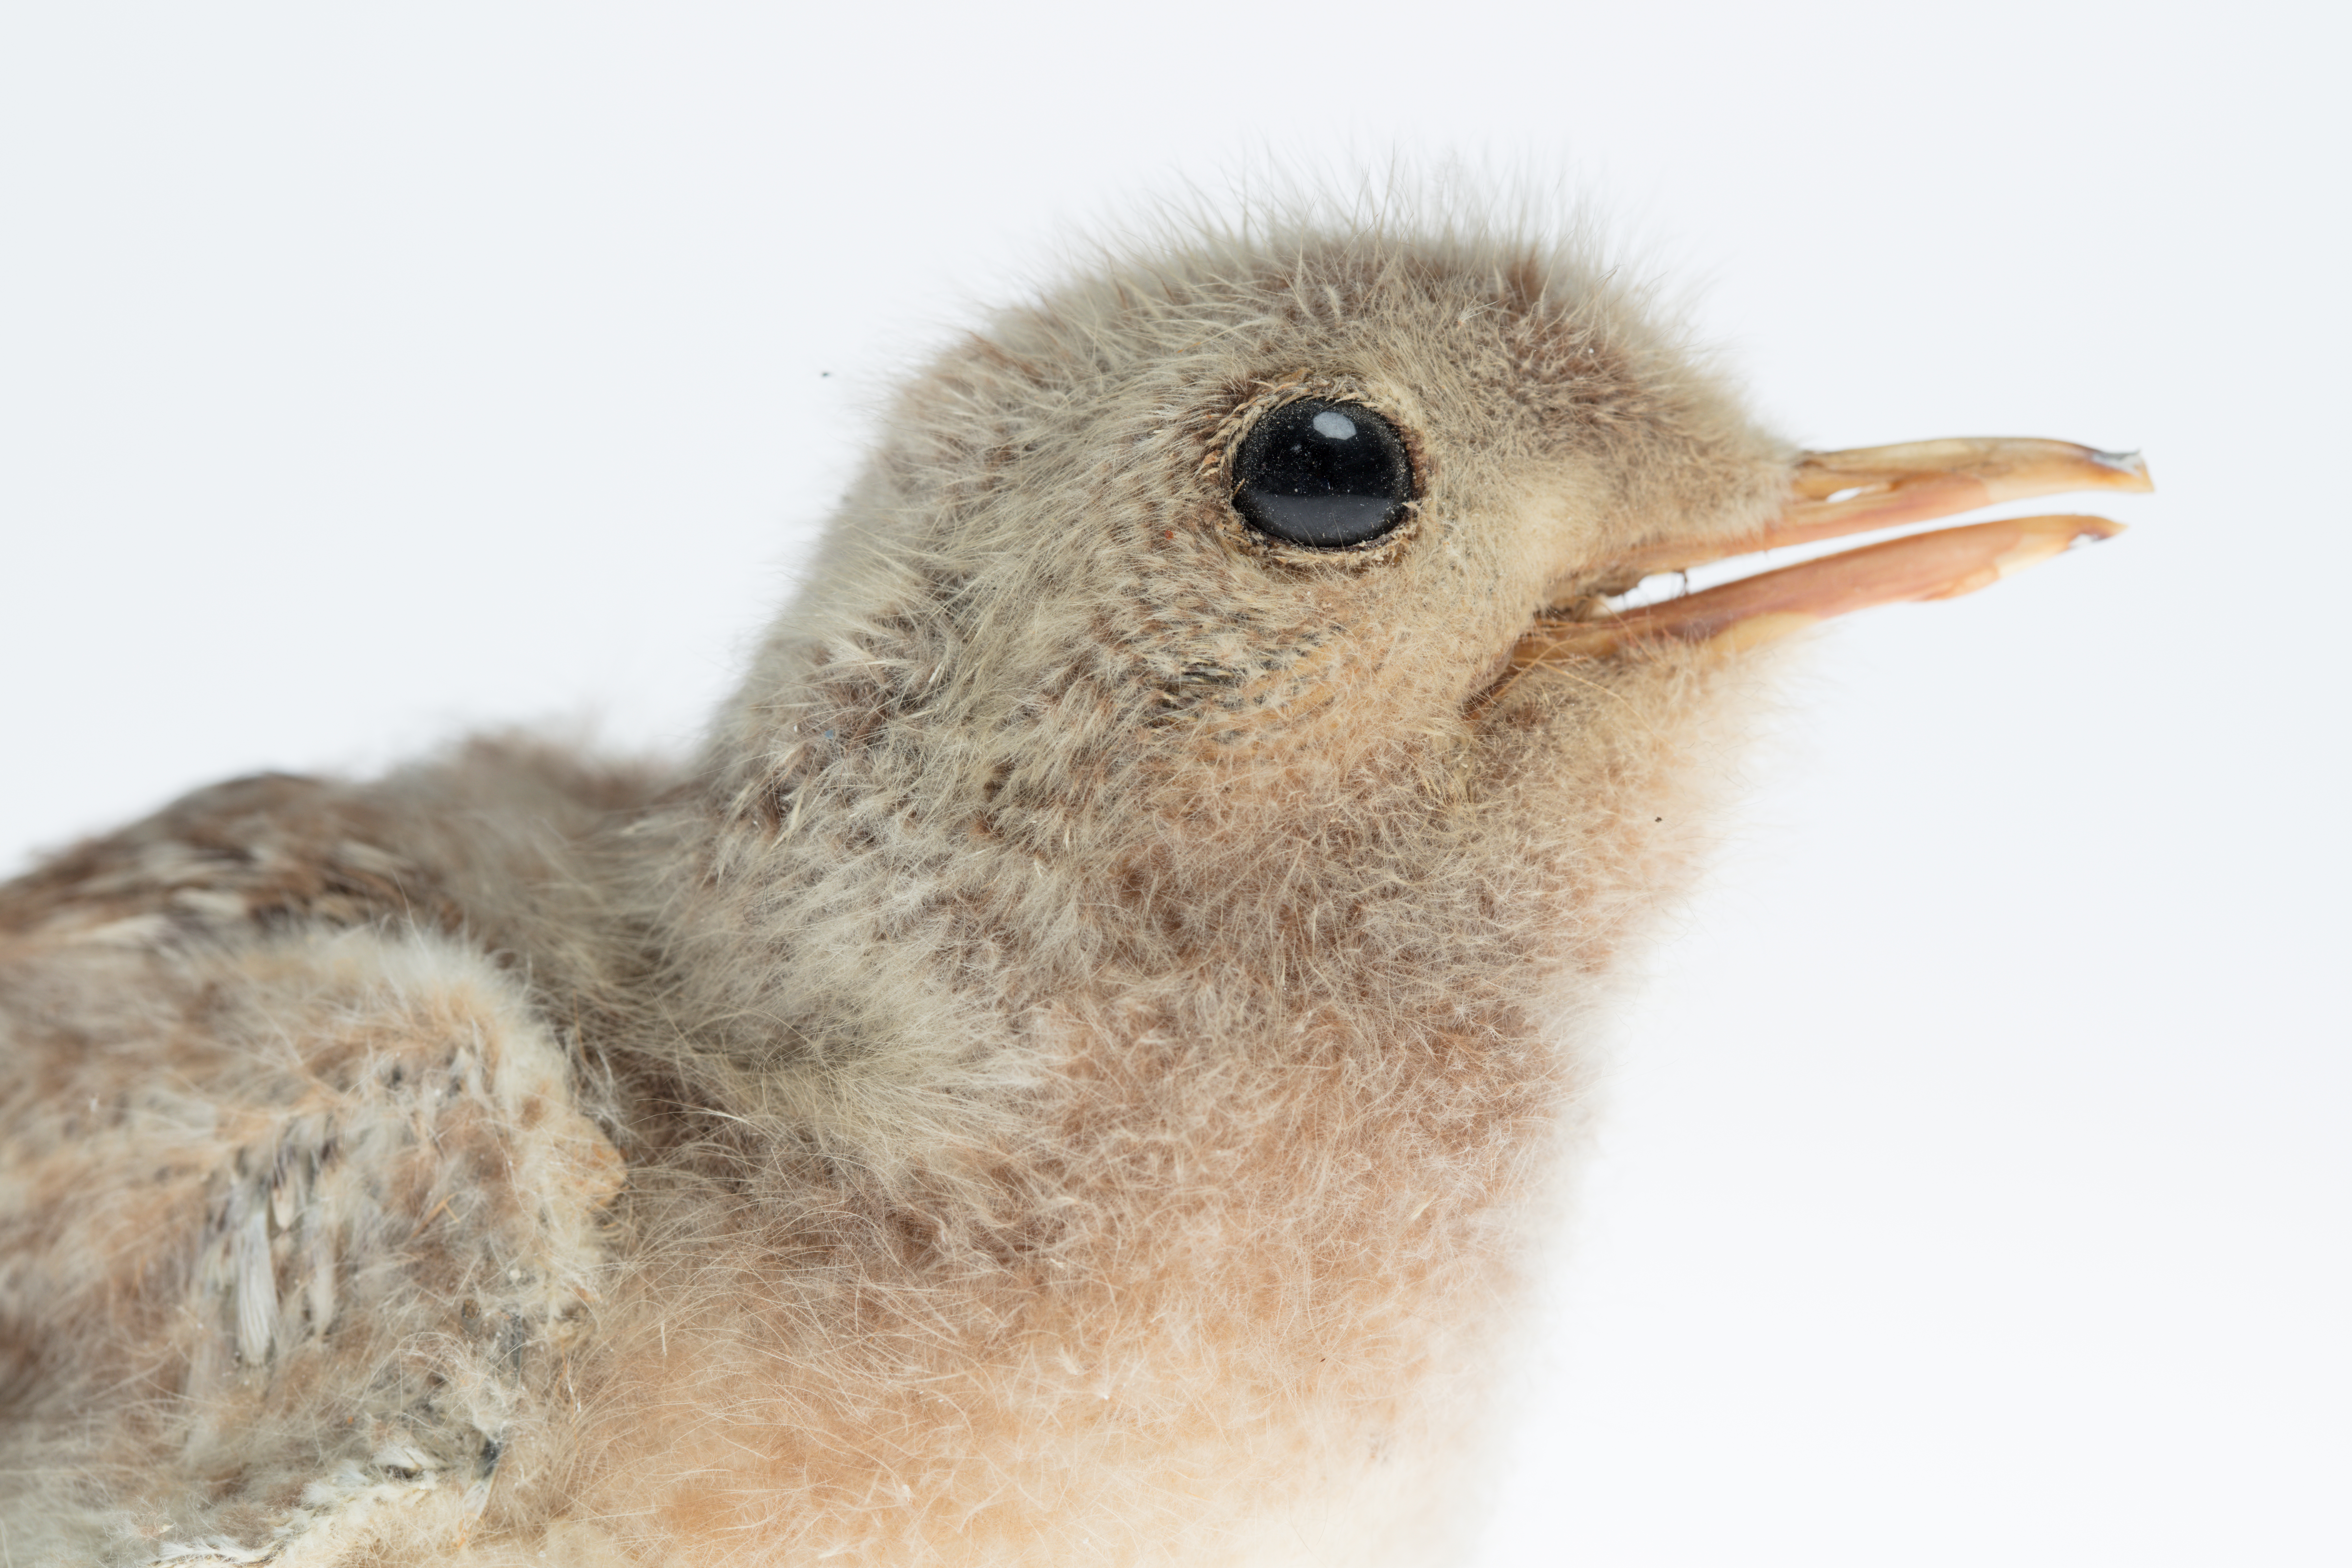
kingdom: Animalia
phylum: Chordata
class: Aves
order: Charadriiformes
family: Laridae
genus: Sterna
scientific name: Sterna striata
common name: White-fronted tern
